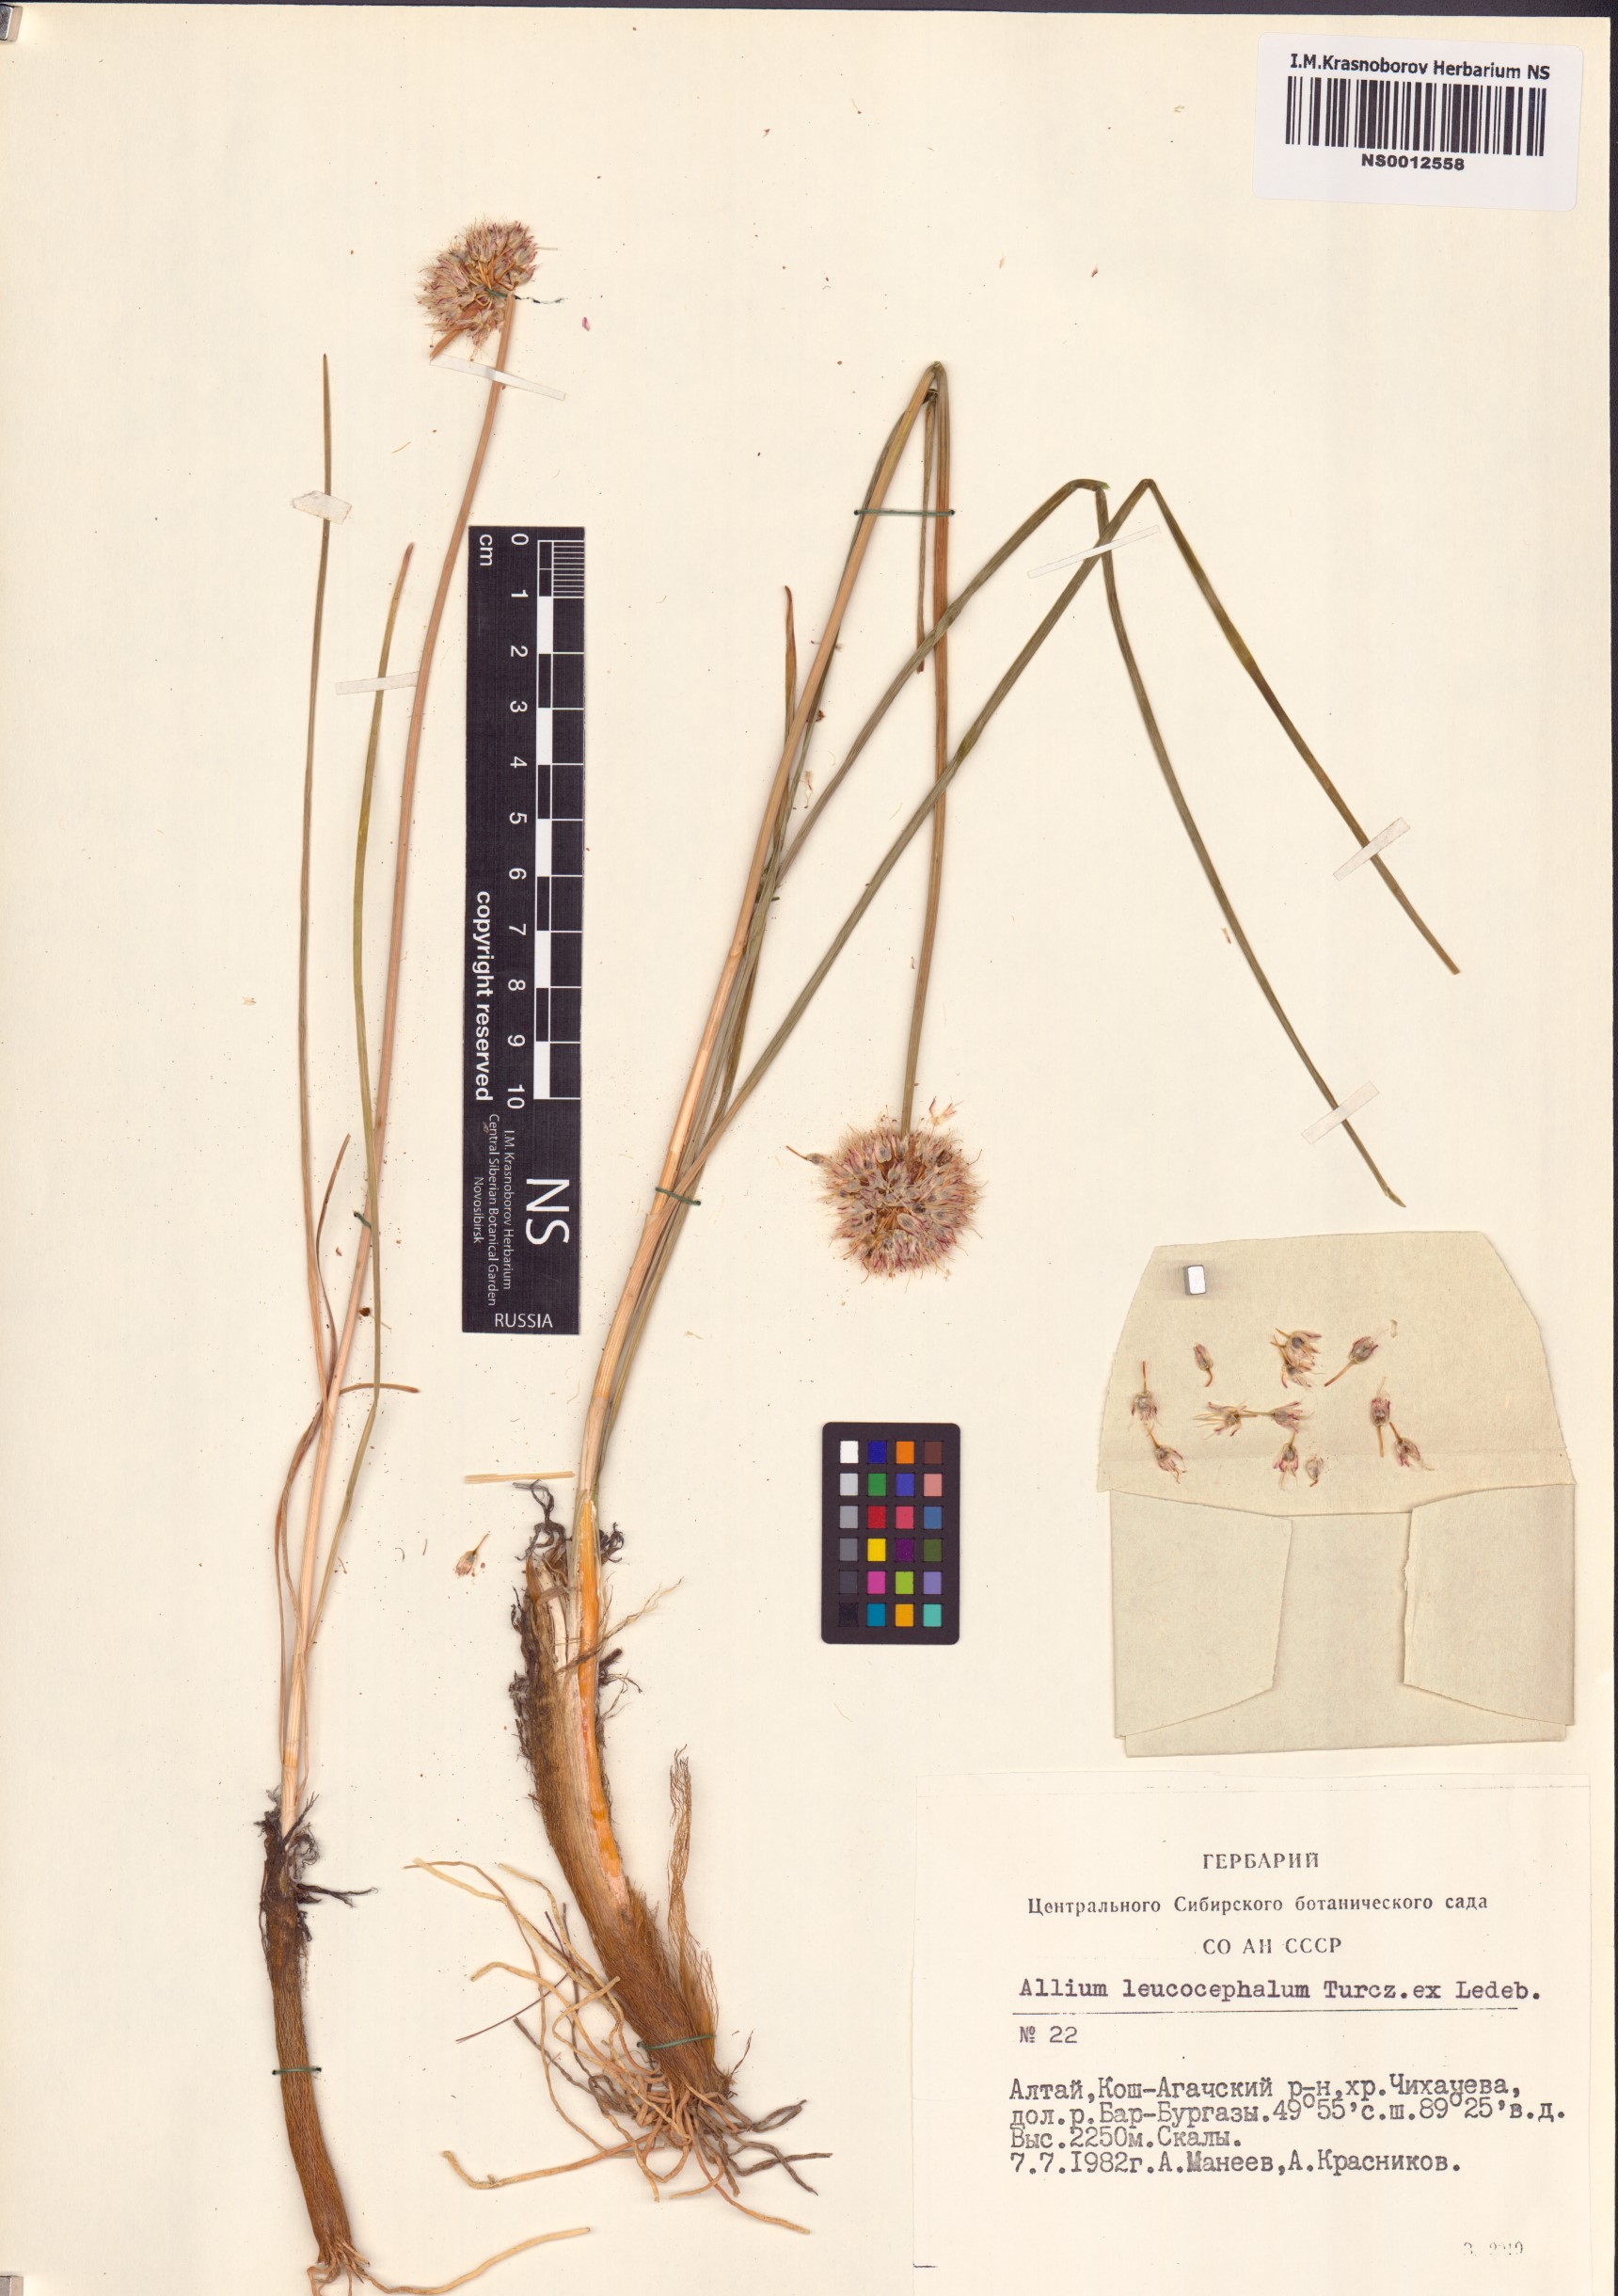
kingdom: Plantae
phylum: Tracheophyta
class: Liliopsida
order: Asparagales
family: Amaryllidaceae
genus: Allium
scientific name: Allium leucocephalum
